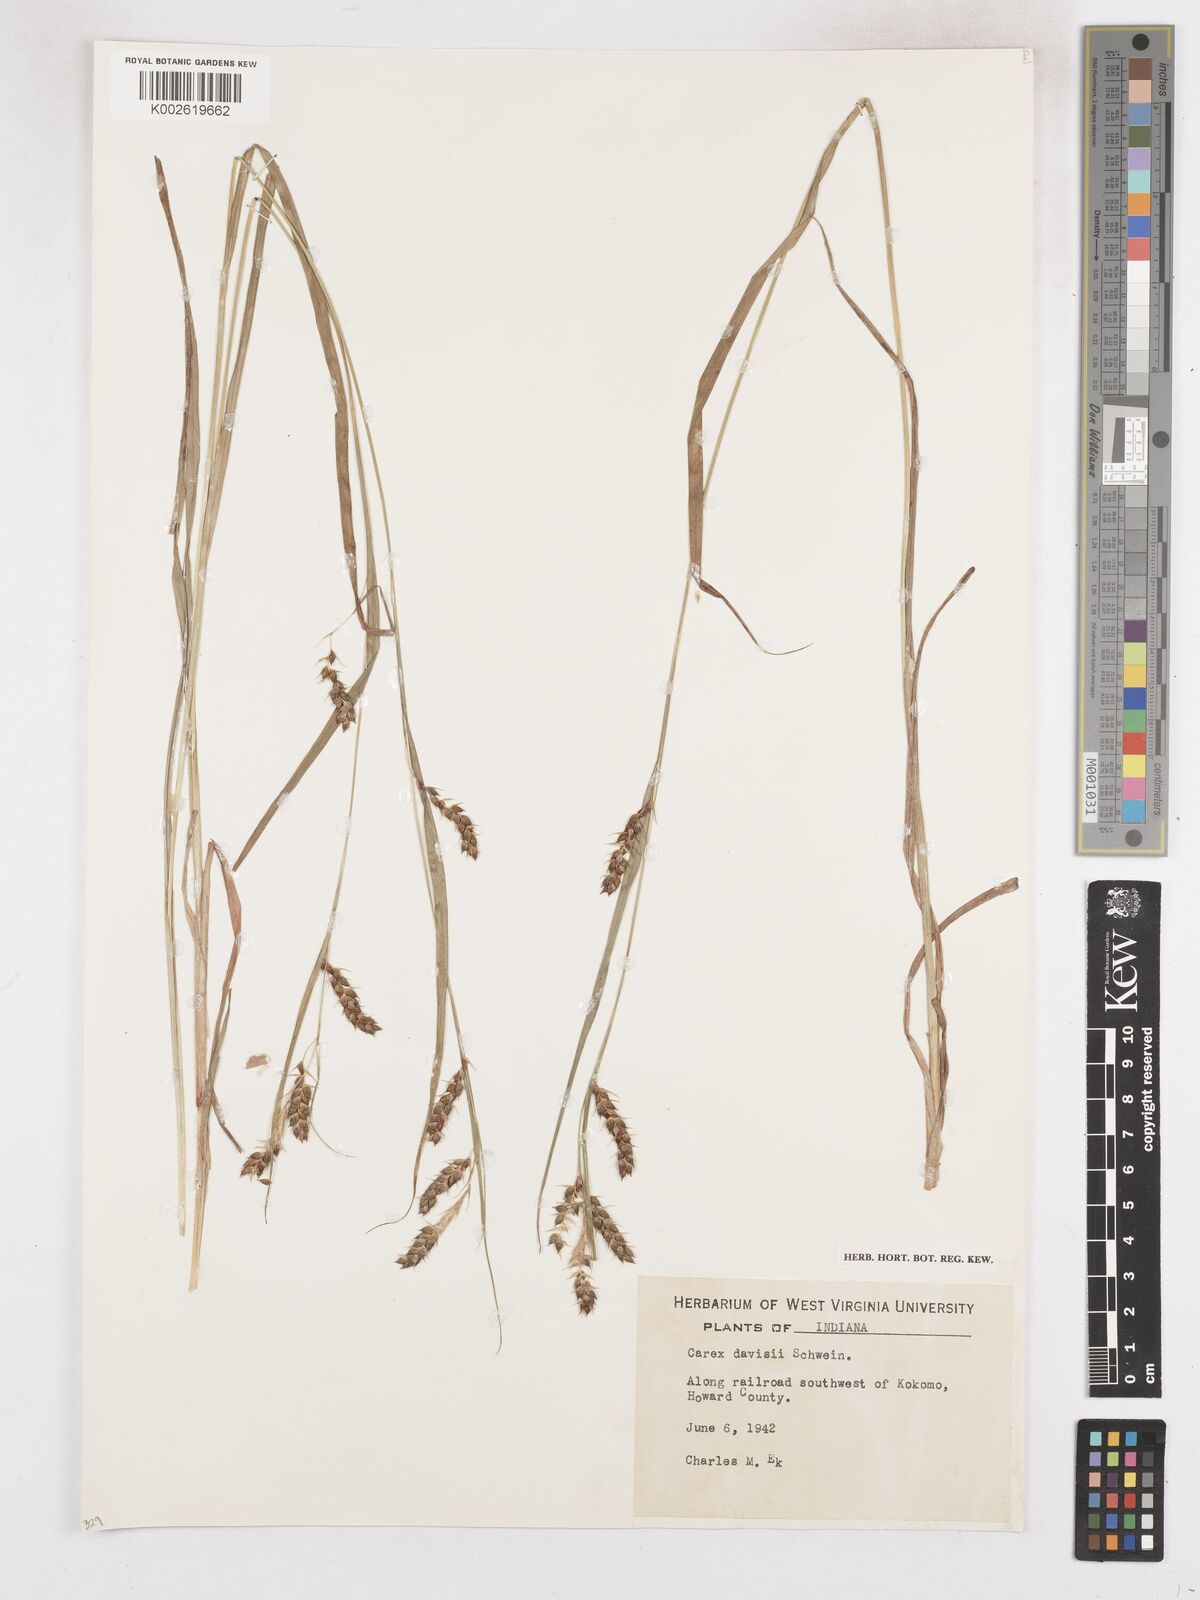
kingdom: Plantae
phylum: Tracheophyta
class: Liliopsida
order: Poales
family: Cyperaceae
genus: Carex
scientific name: Carex davisii
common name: Davis' sedge
